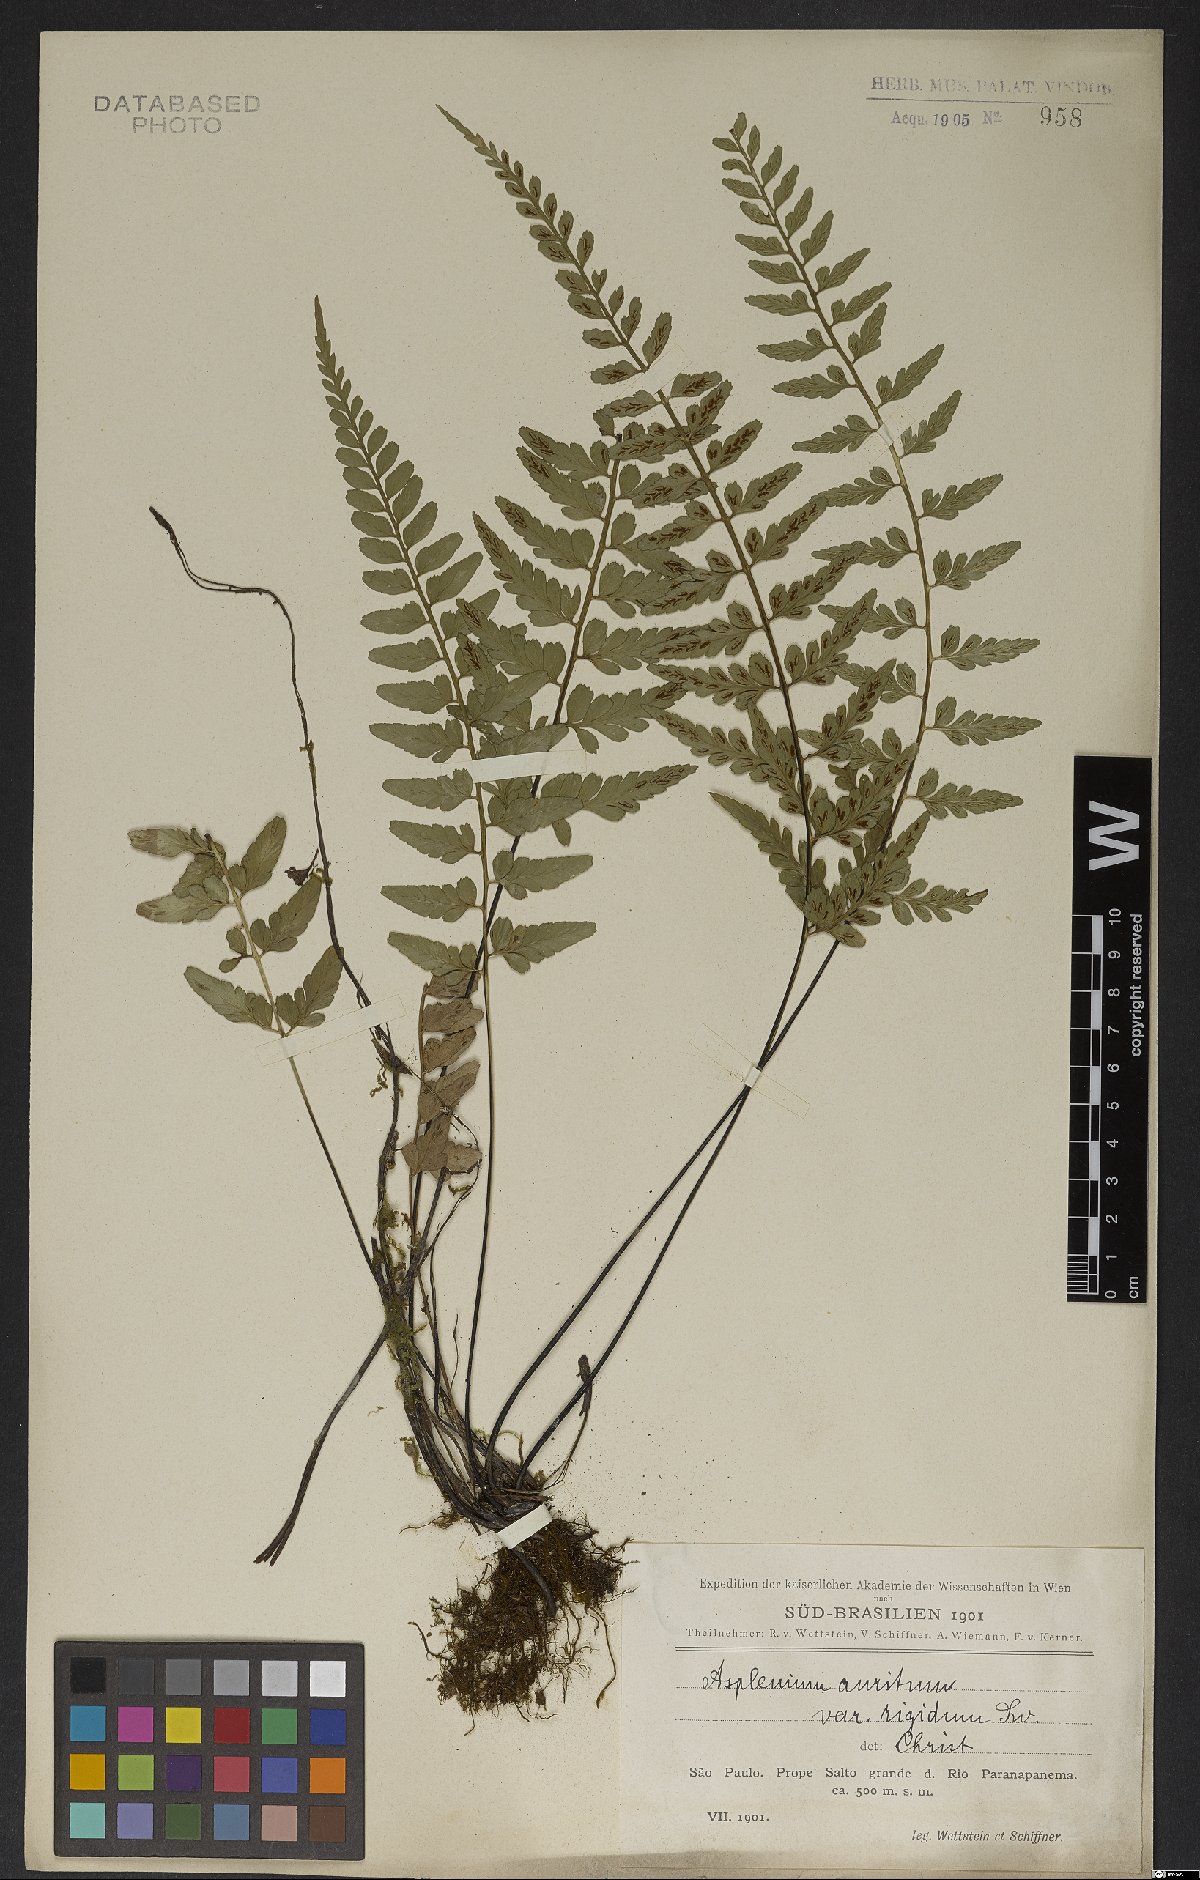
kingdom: Plantae
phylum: Tracheophyta
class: Polypodiopsida
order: Polypodiales
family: Aspleniaceae
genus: Asplenium
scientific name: Asplenium auritum
